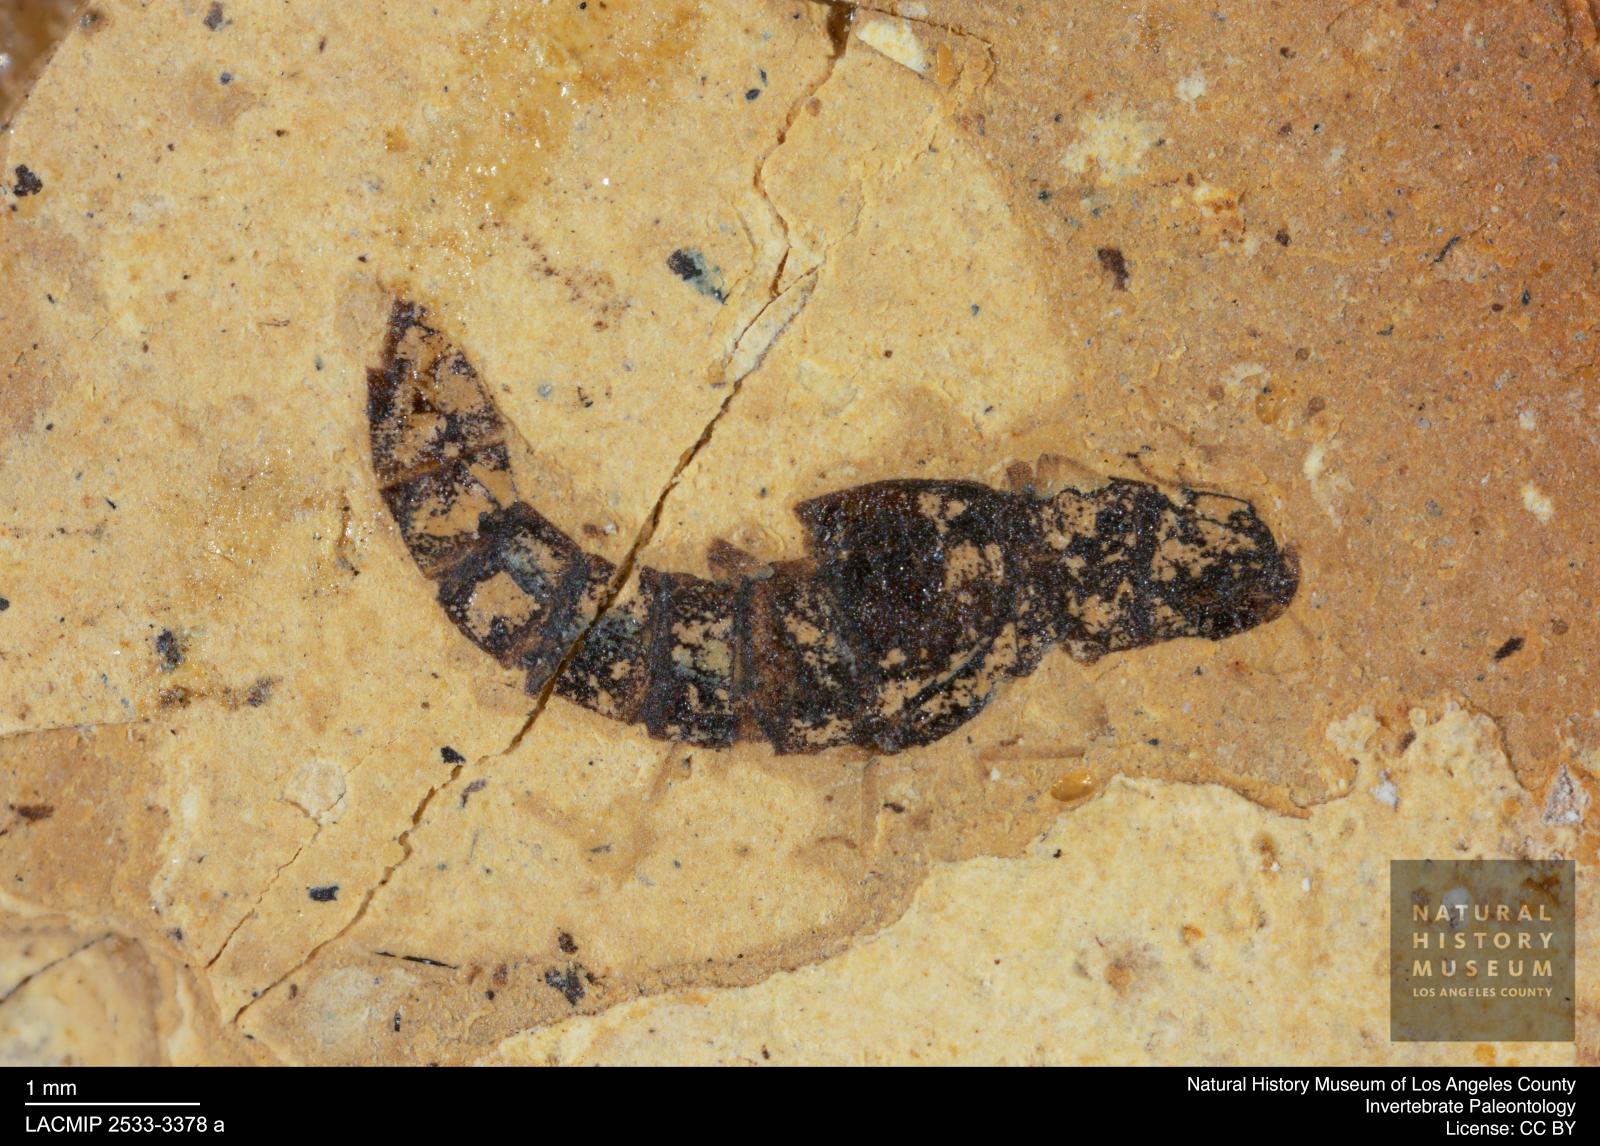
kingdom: Animalia
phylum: Arthropoda
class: Insecta
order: Coleoptera
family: Staphylinidae
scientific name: Staphylinidae
